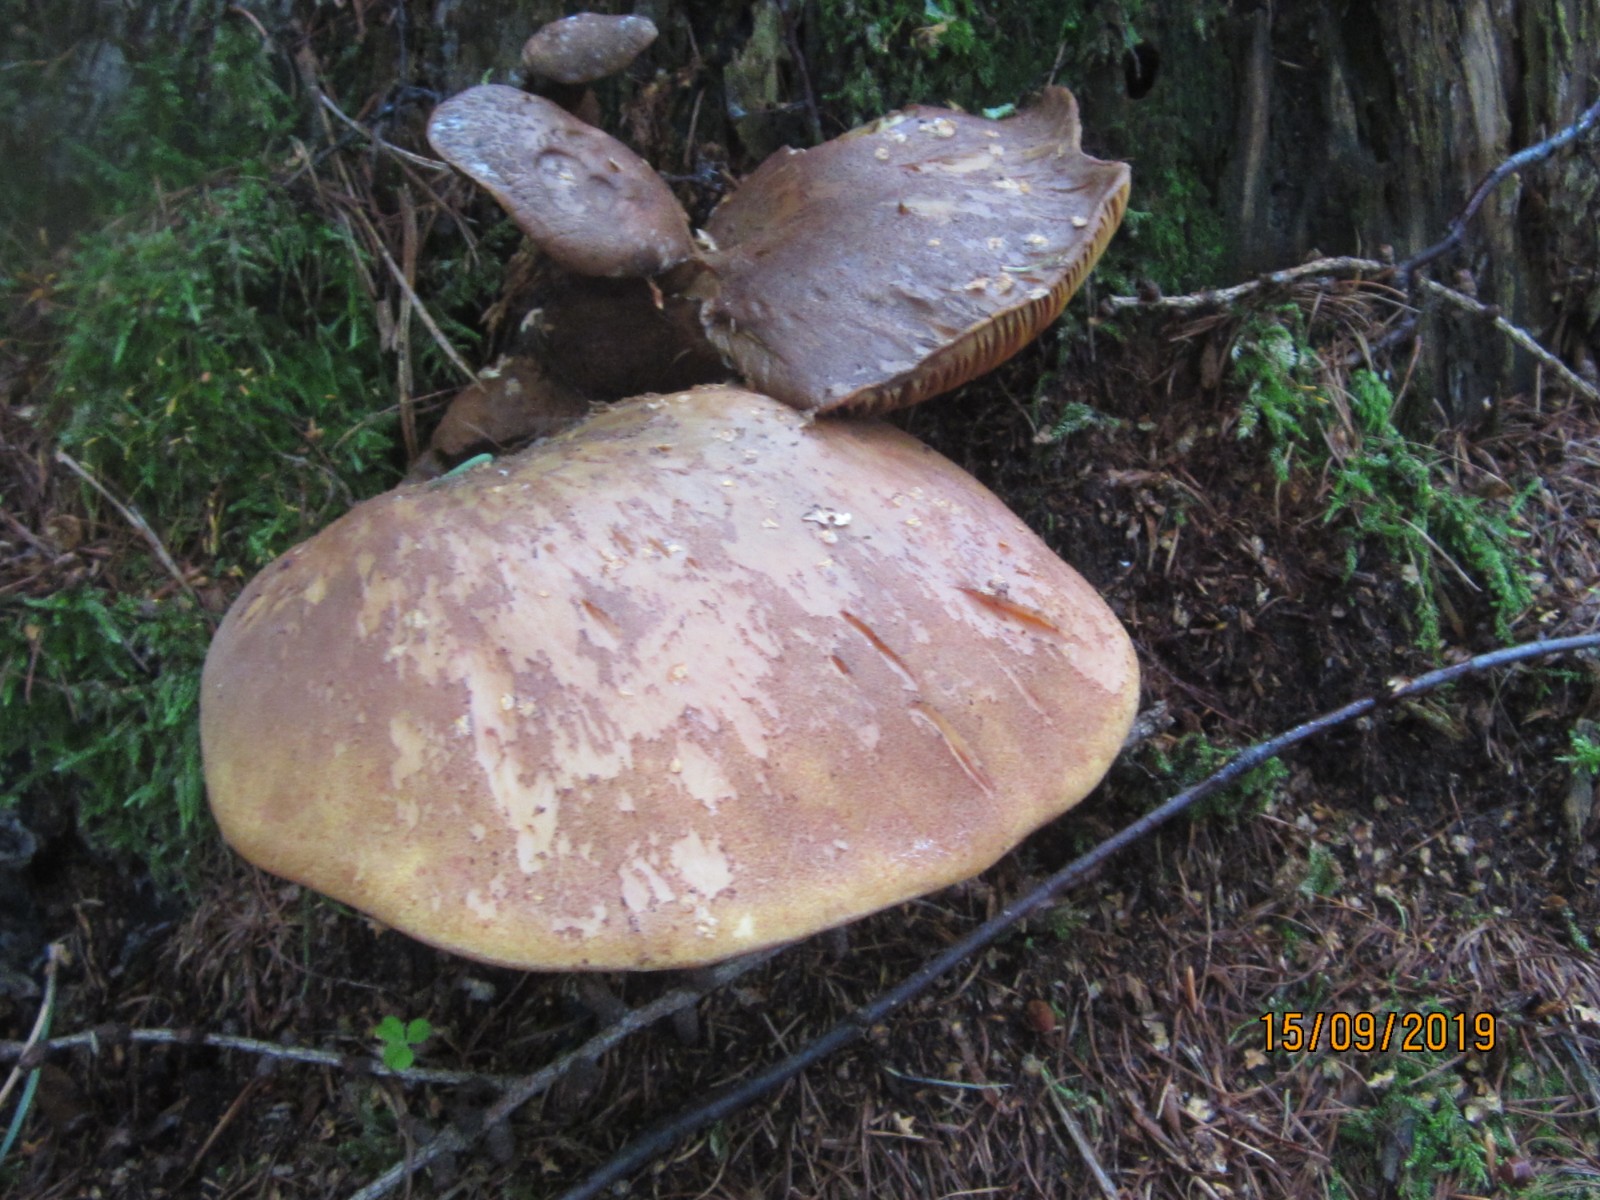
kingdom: Fungi
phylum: Basidiomycota
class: Agaricomycetes
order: Boletales
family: Tapinellaceae
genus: Tapinella
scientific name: Tapinella atrotomentosa
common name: sortfiltet viftesvamp
